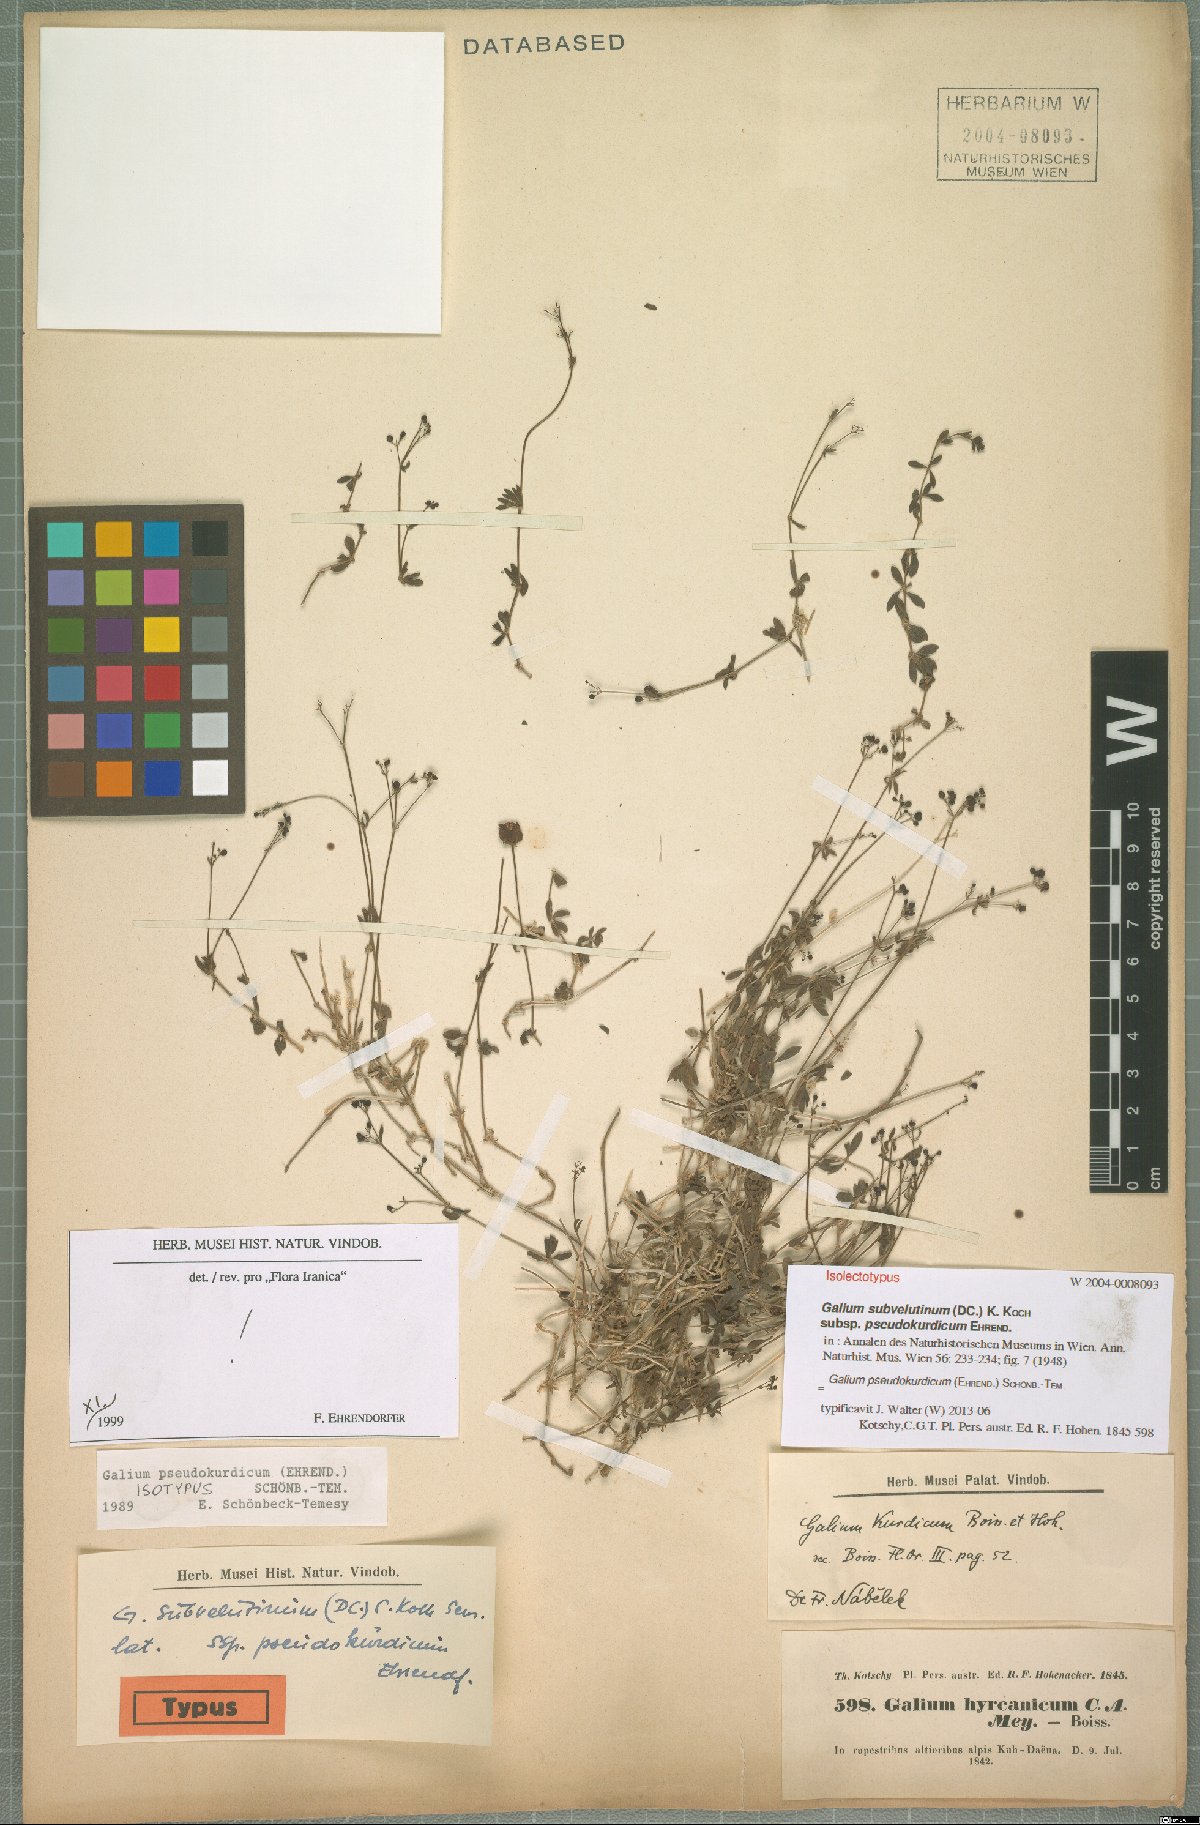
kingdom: Plantae
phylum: Tracheophyta
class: Magnoliopsida
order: Gentianales
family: Rubiaceae
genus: Galium
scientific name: Galium pseudokurdicum
